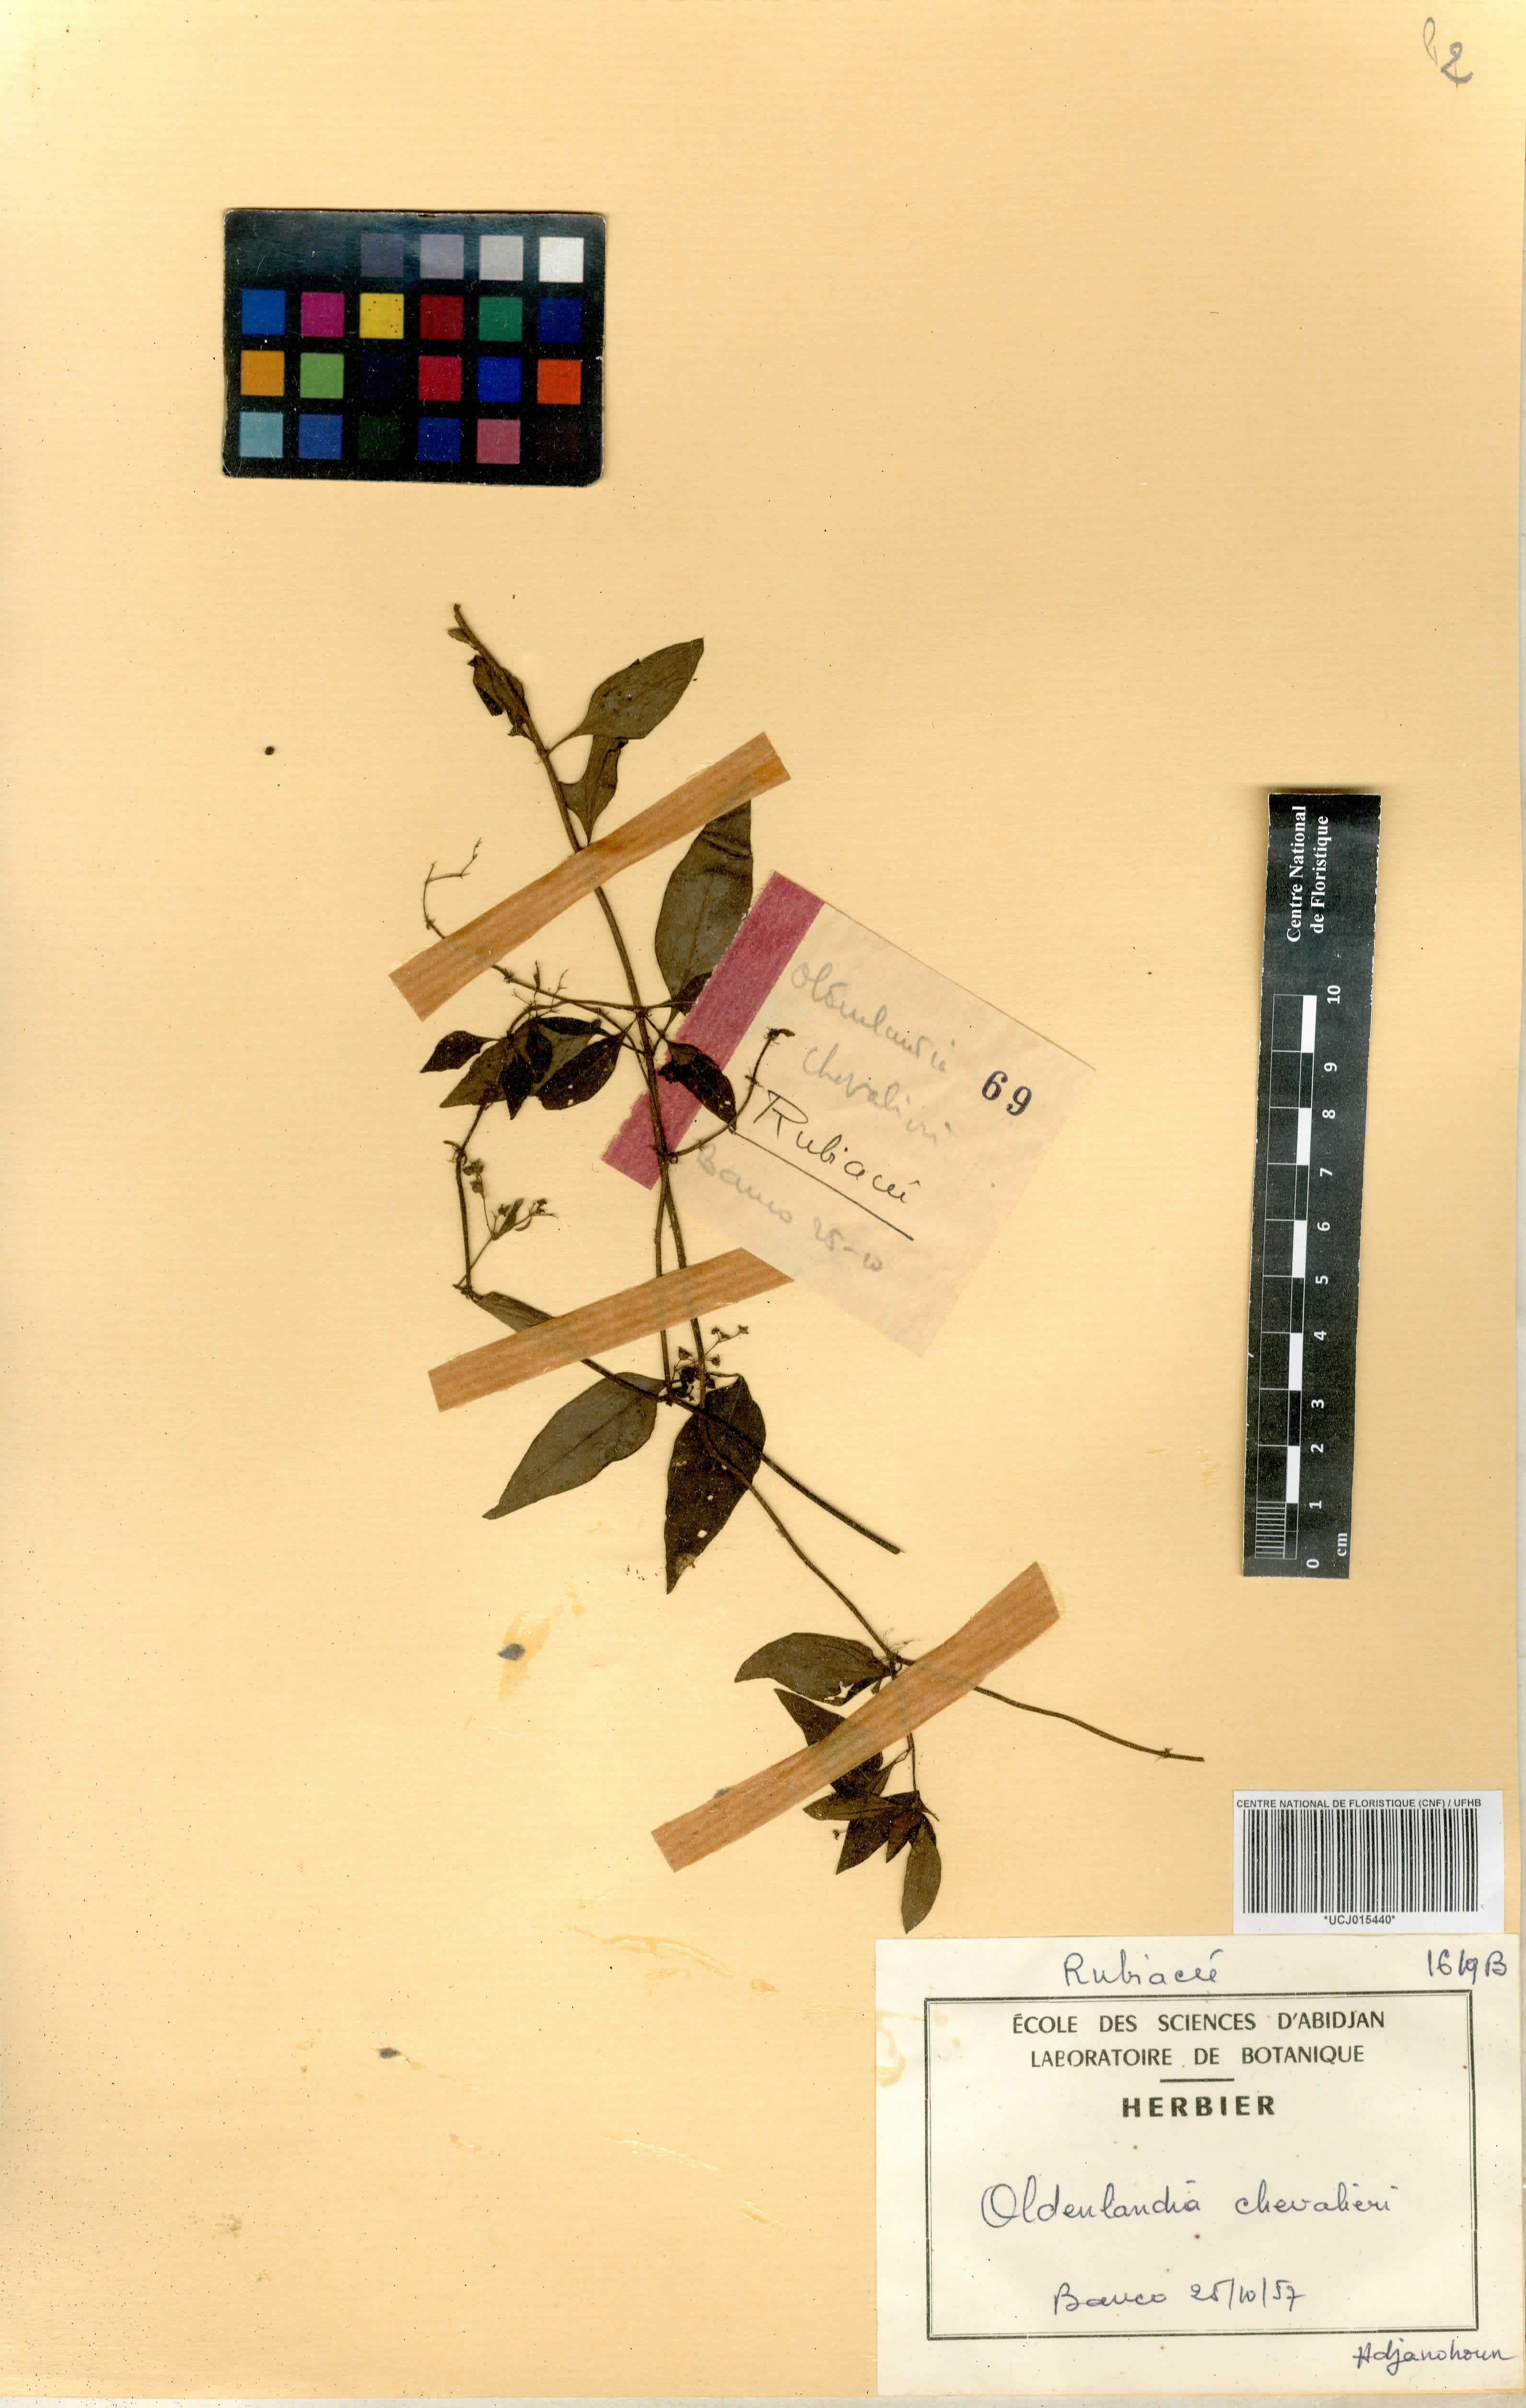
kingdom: Plantae
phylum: Tracheophyta
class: Magnoliopsida
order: Gentianales
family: Rubiaceae
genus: Oldenlandia
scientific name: Oldenlandia johnstonii
